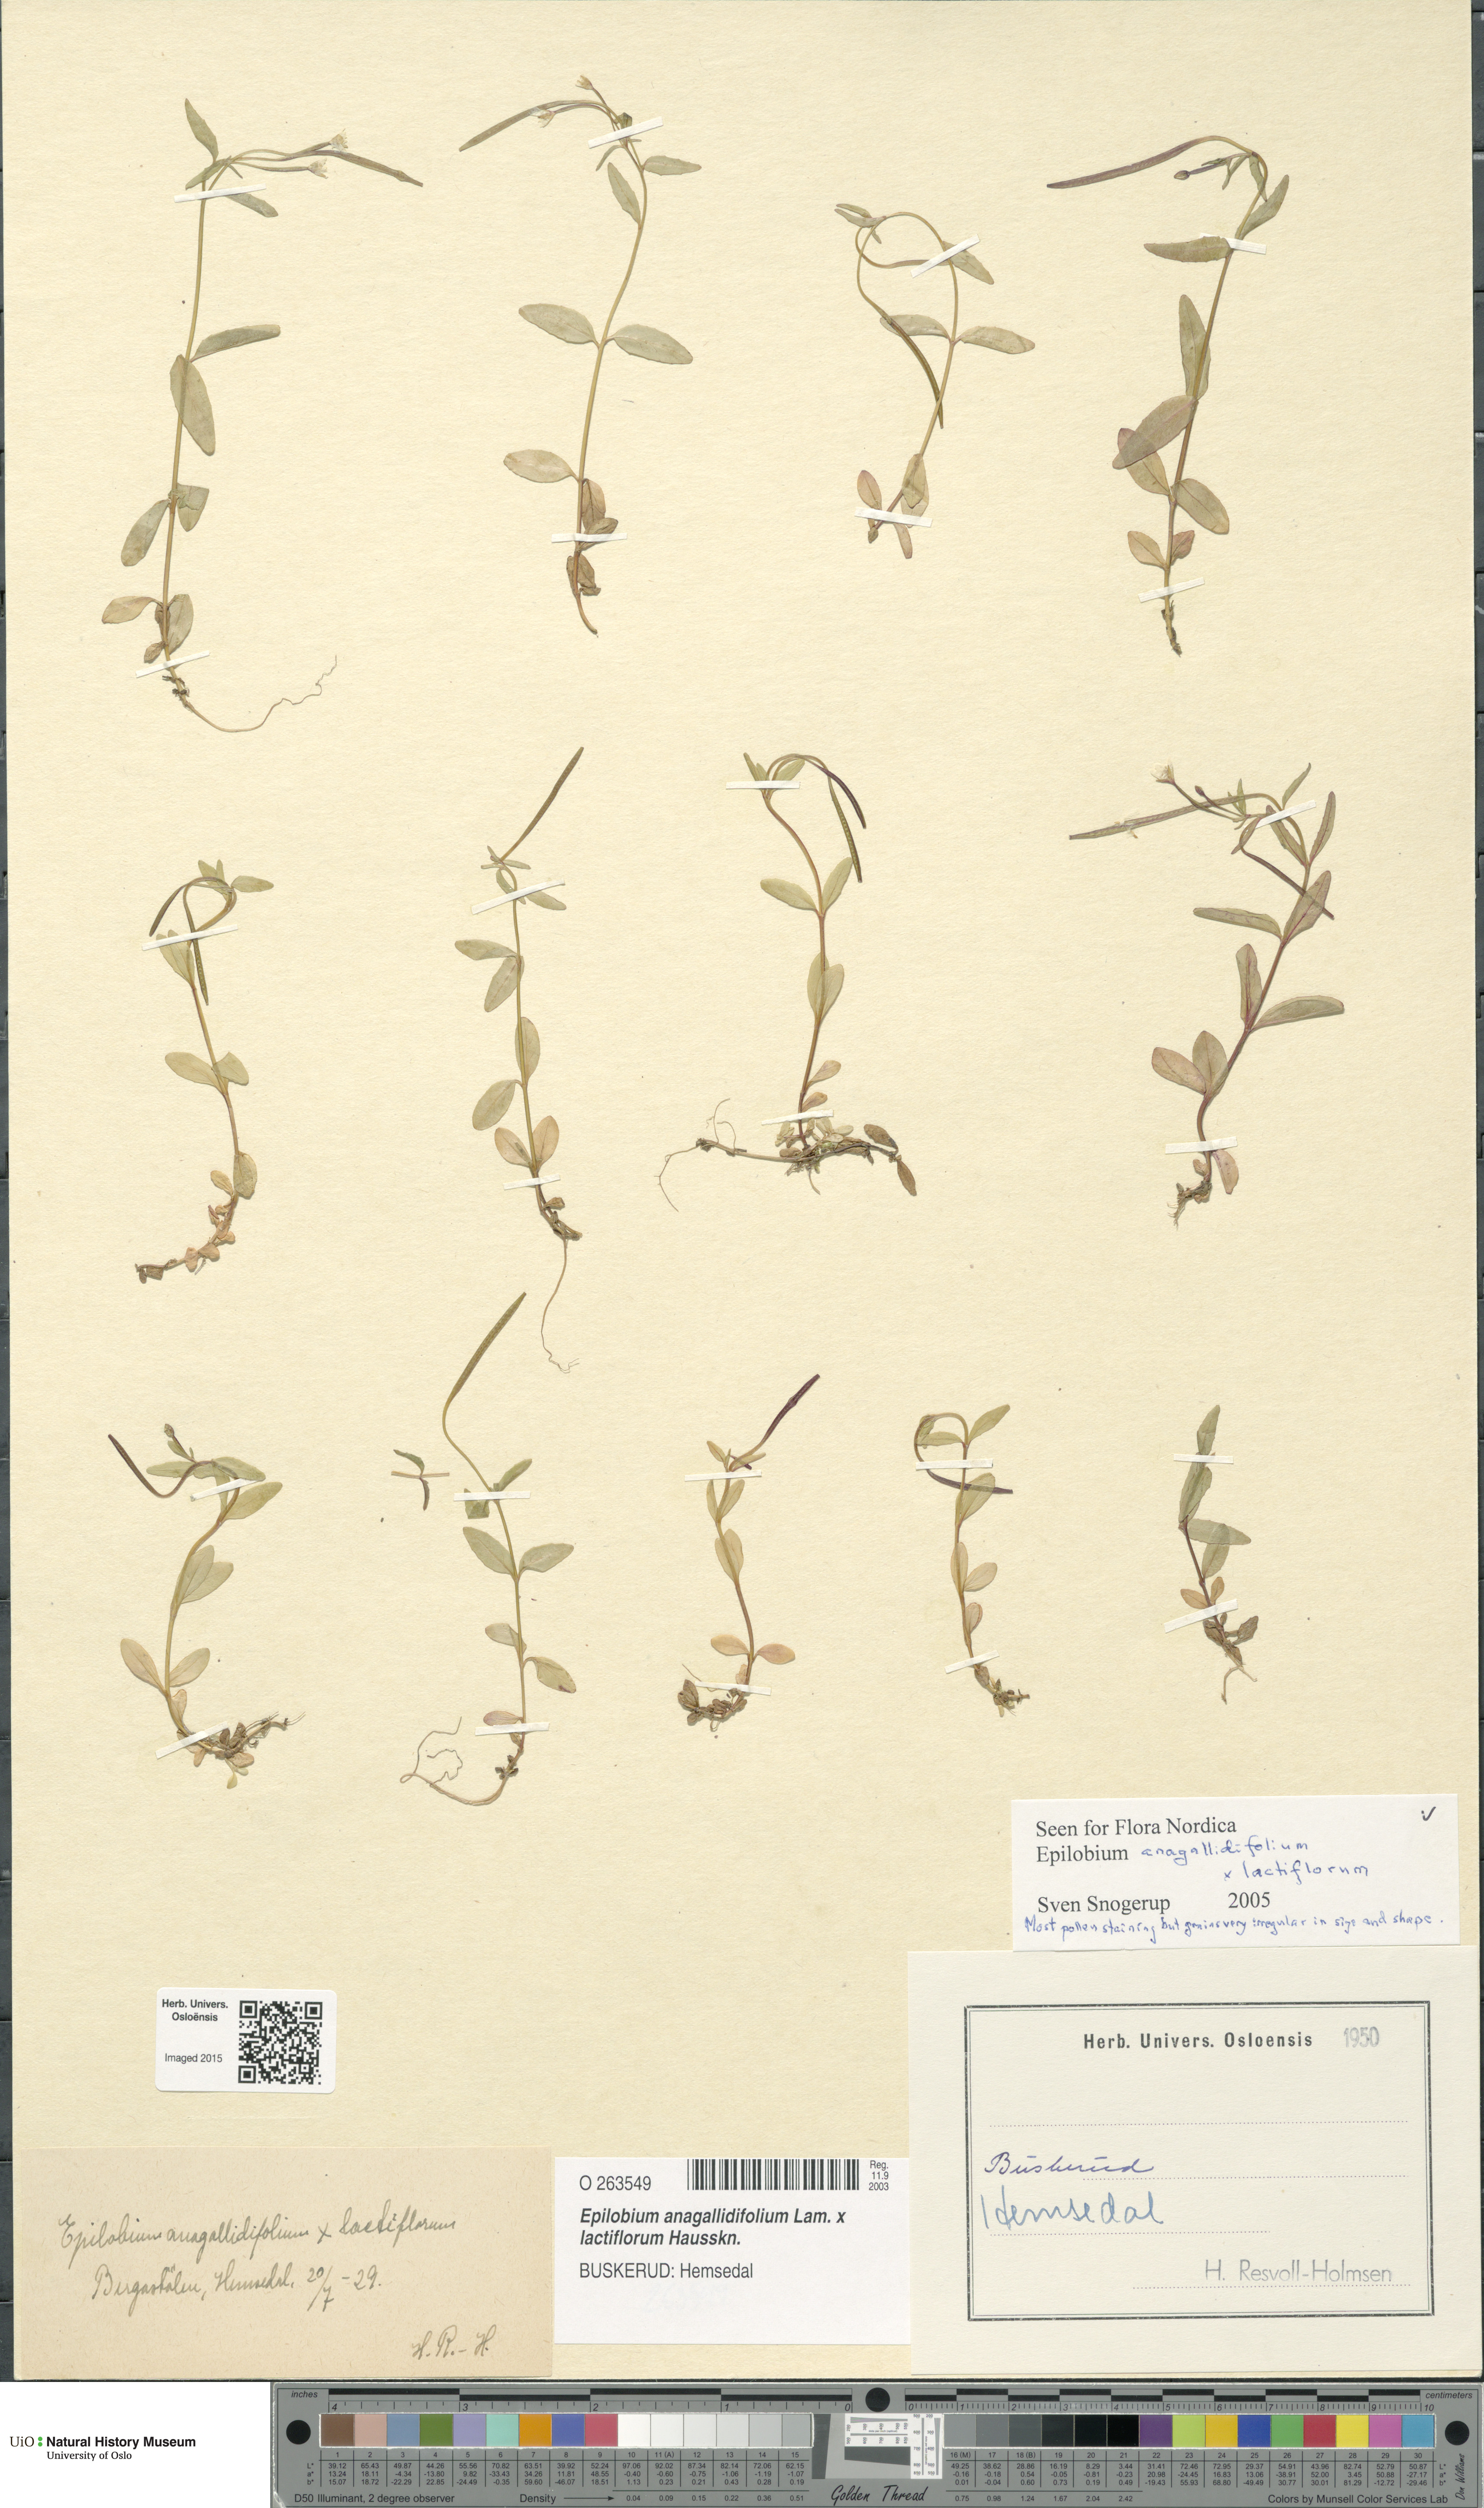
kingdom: Plantae
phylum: Tracheophyta
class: Magnoliopsida
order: Myrtales
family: Onagraceae
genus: Epilobium
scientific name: Epilobium
